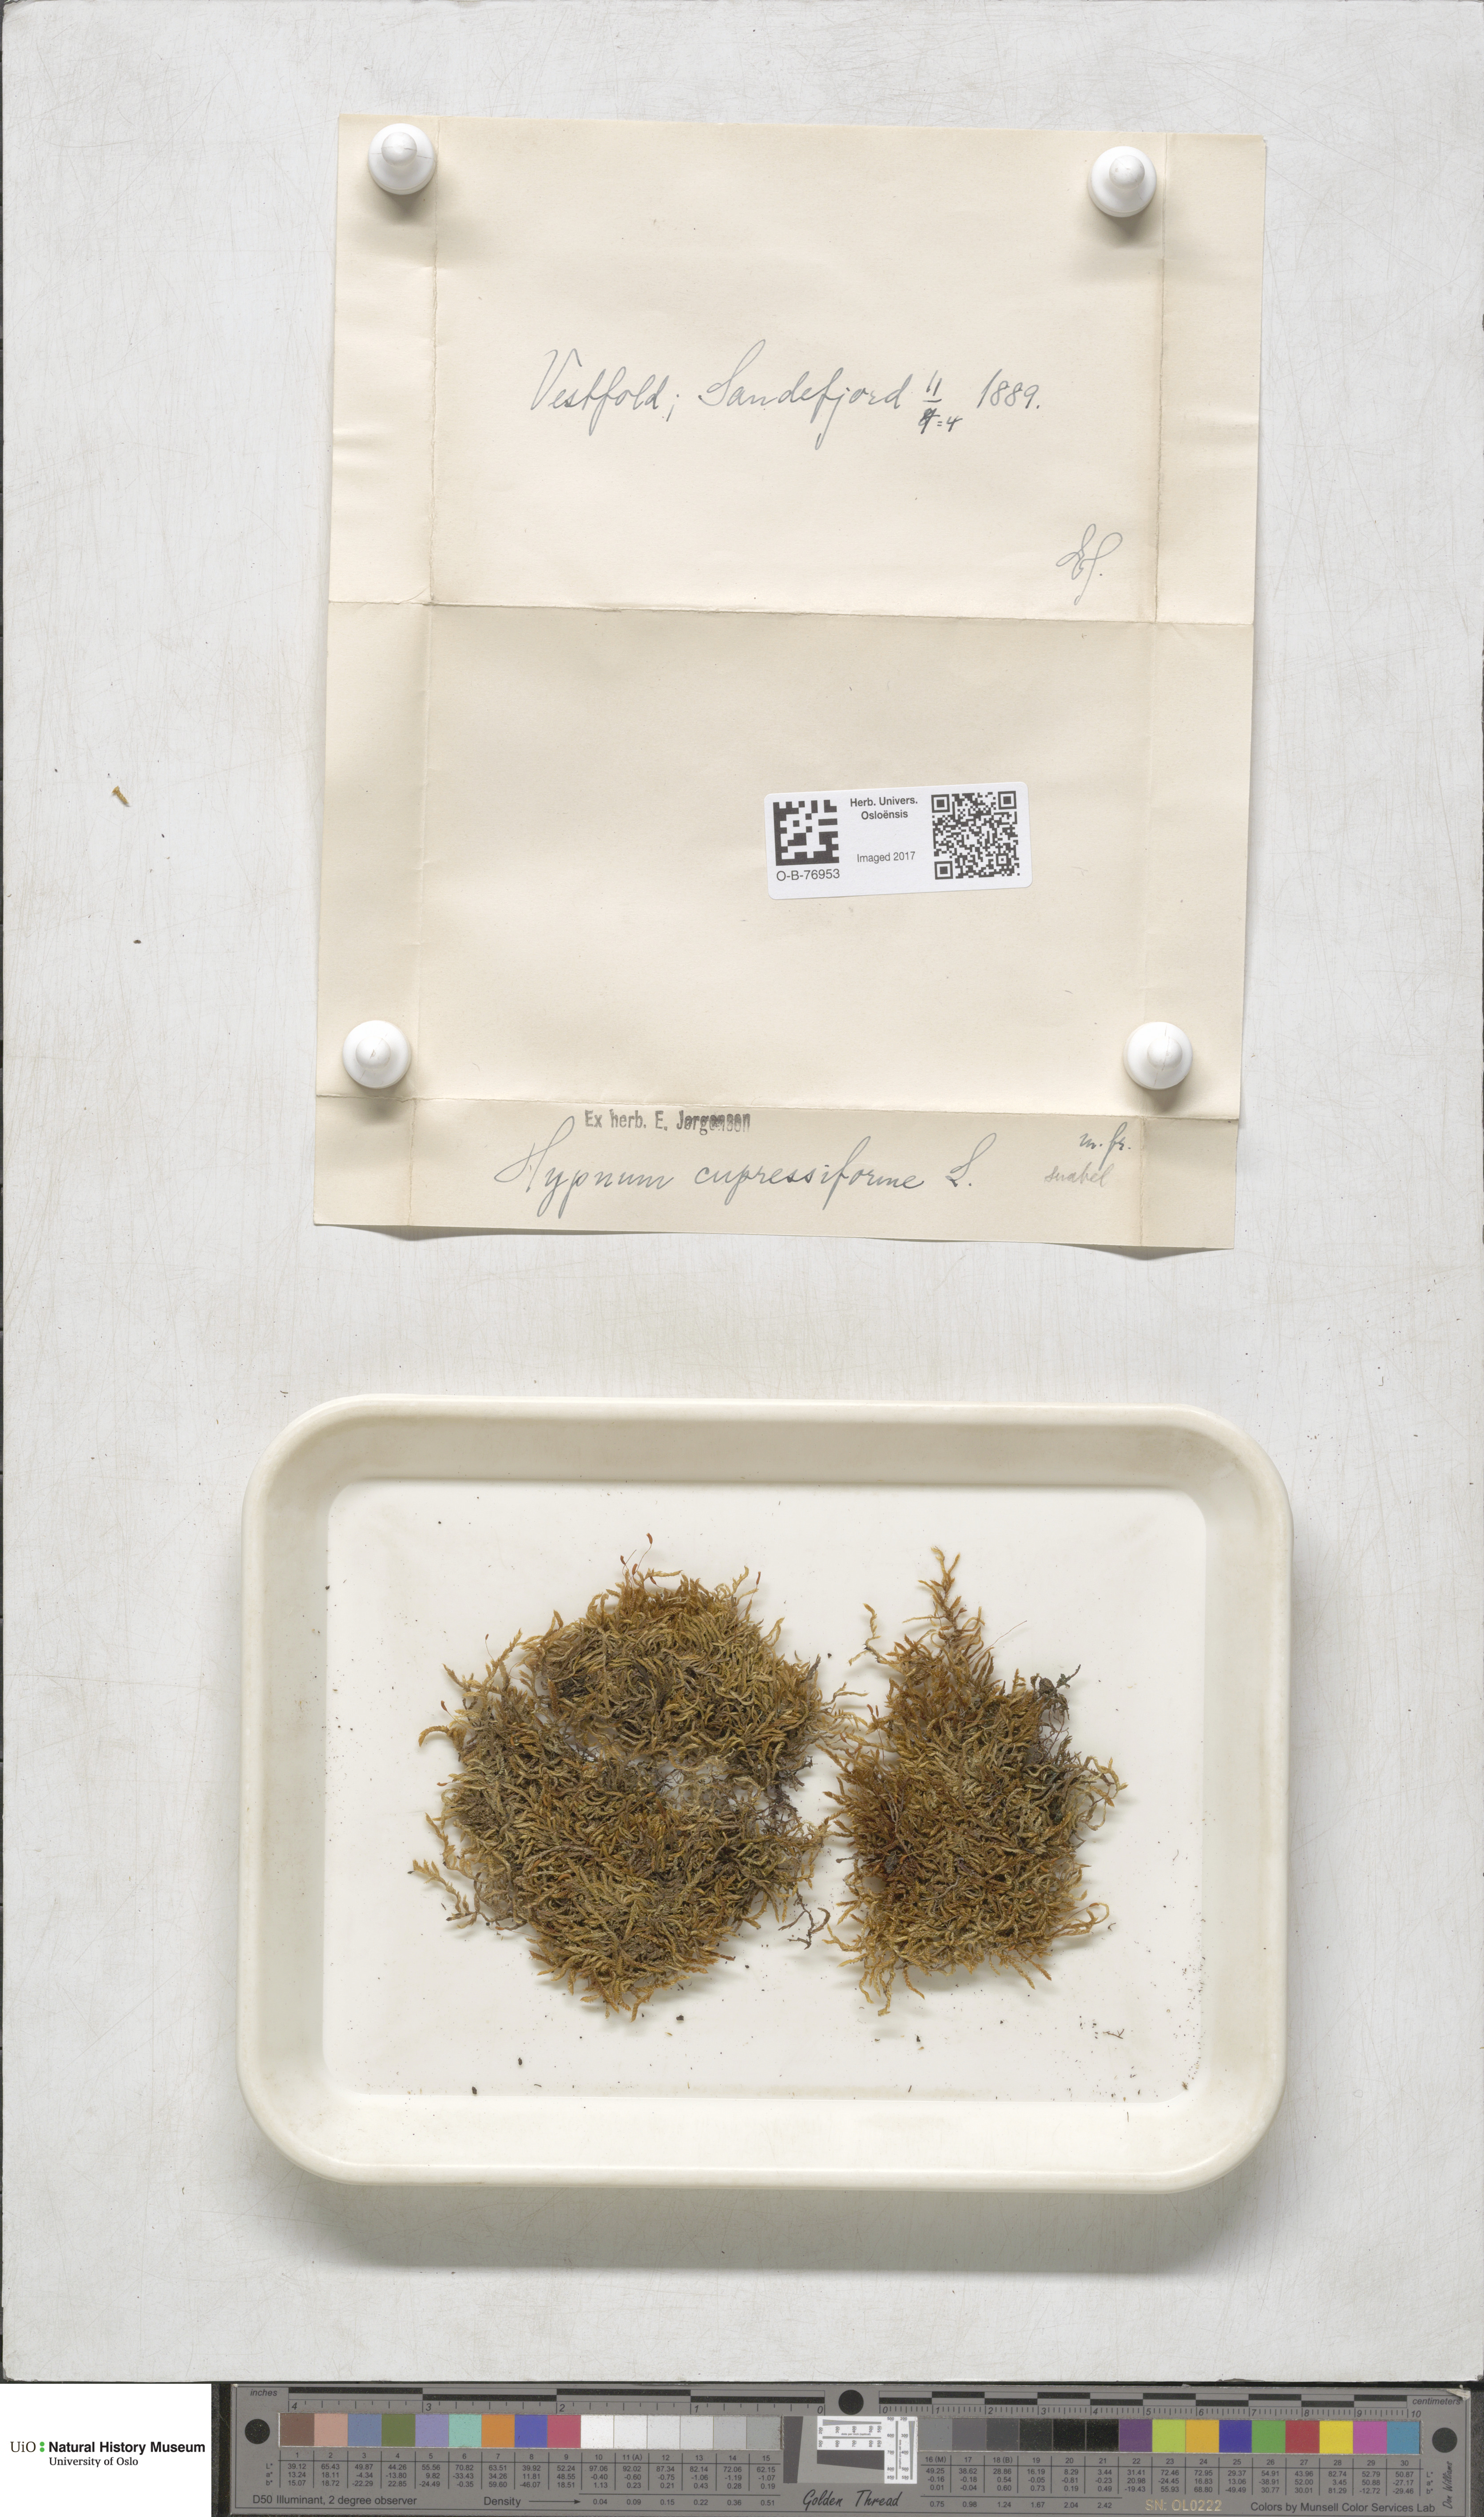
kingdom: Plantae
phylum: Bryophyta
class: Bryopsida
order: Hypnales
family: Hypnaceae
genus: Hypnum
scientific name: Hypnum cupressiforme
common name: Cypress-leaved plait-moss
